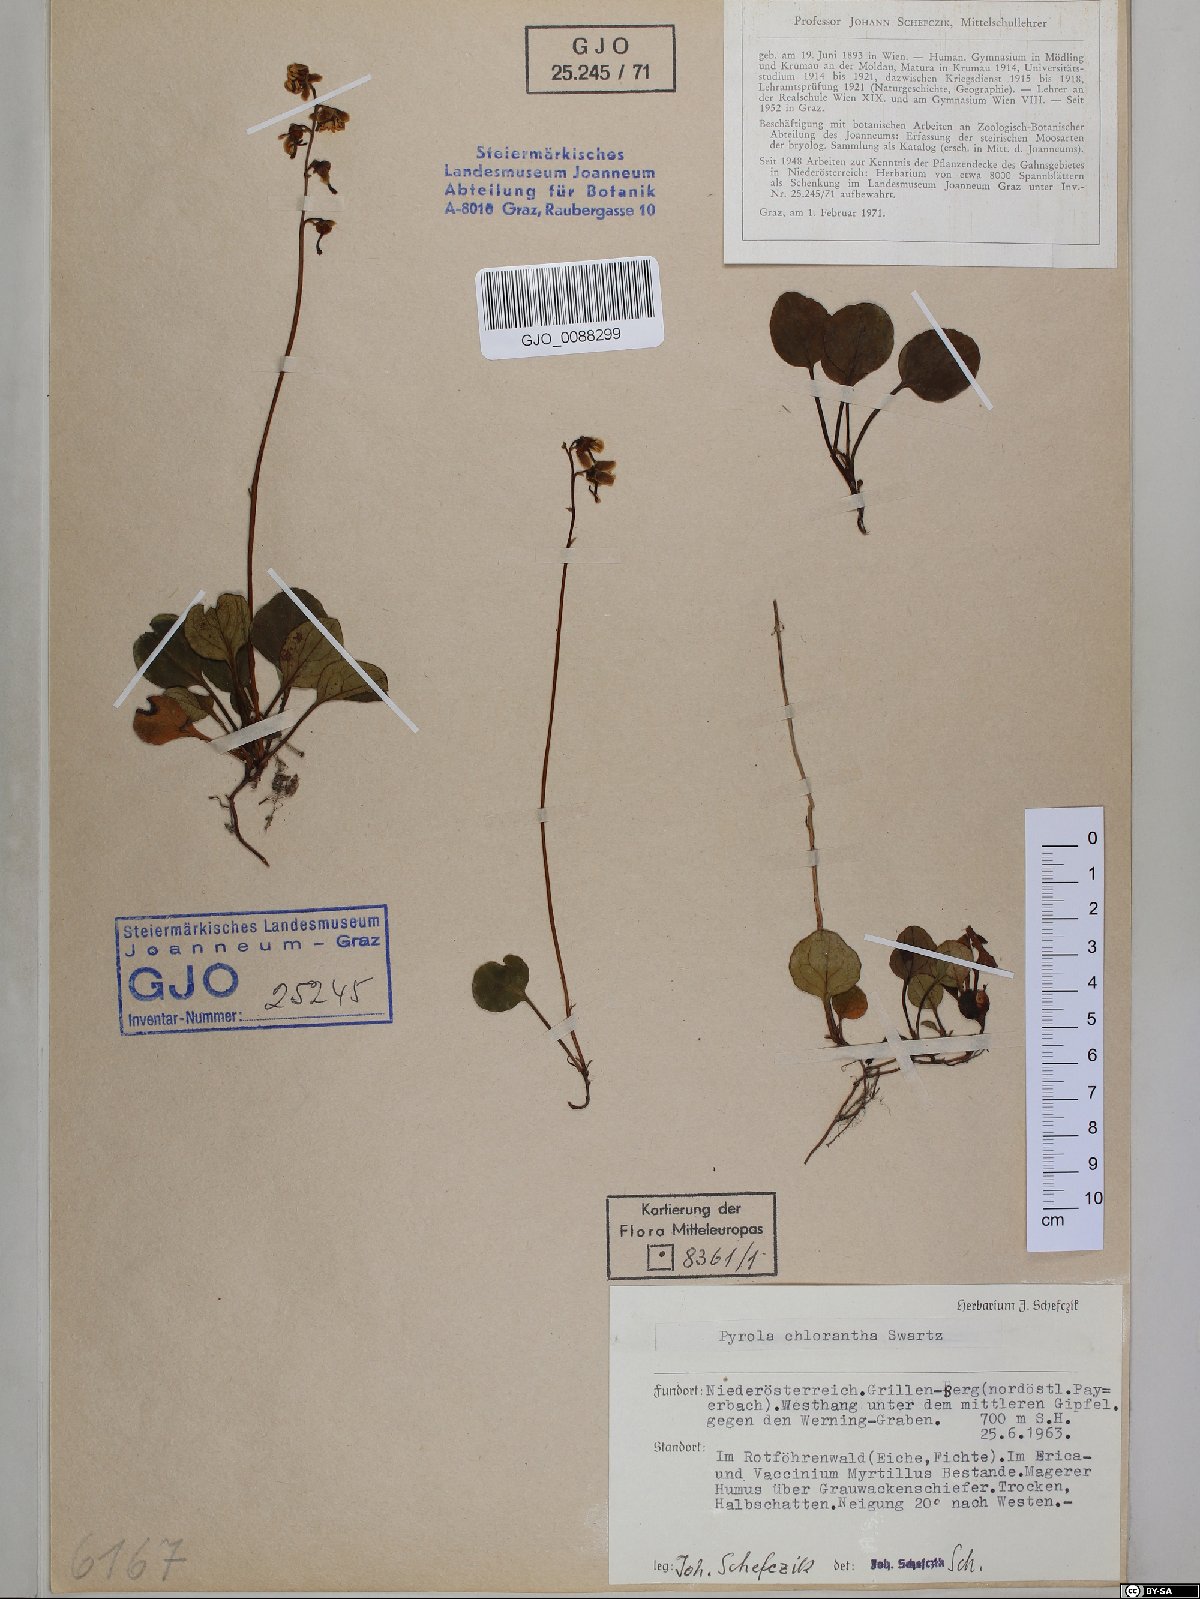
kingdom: Plantae
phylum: Tracheophyta
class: Magnoliopsida
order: Ericales
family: Ericaceae
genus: Pyrola
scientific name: Pyrola chlorantha
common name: Green wintergreen
